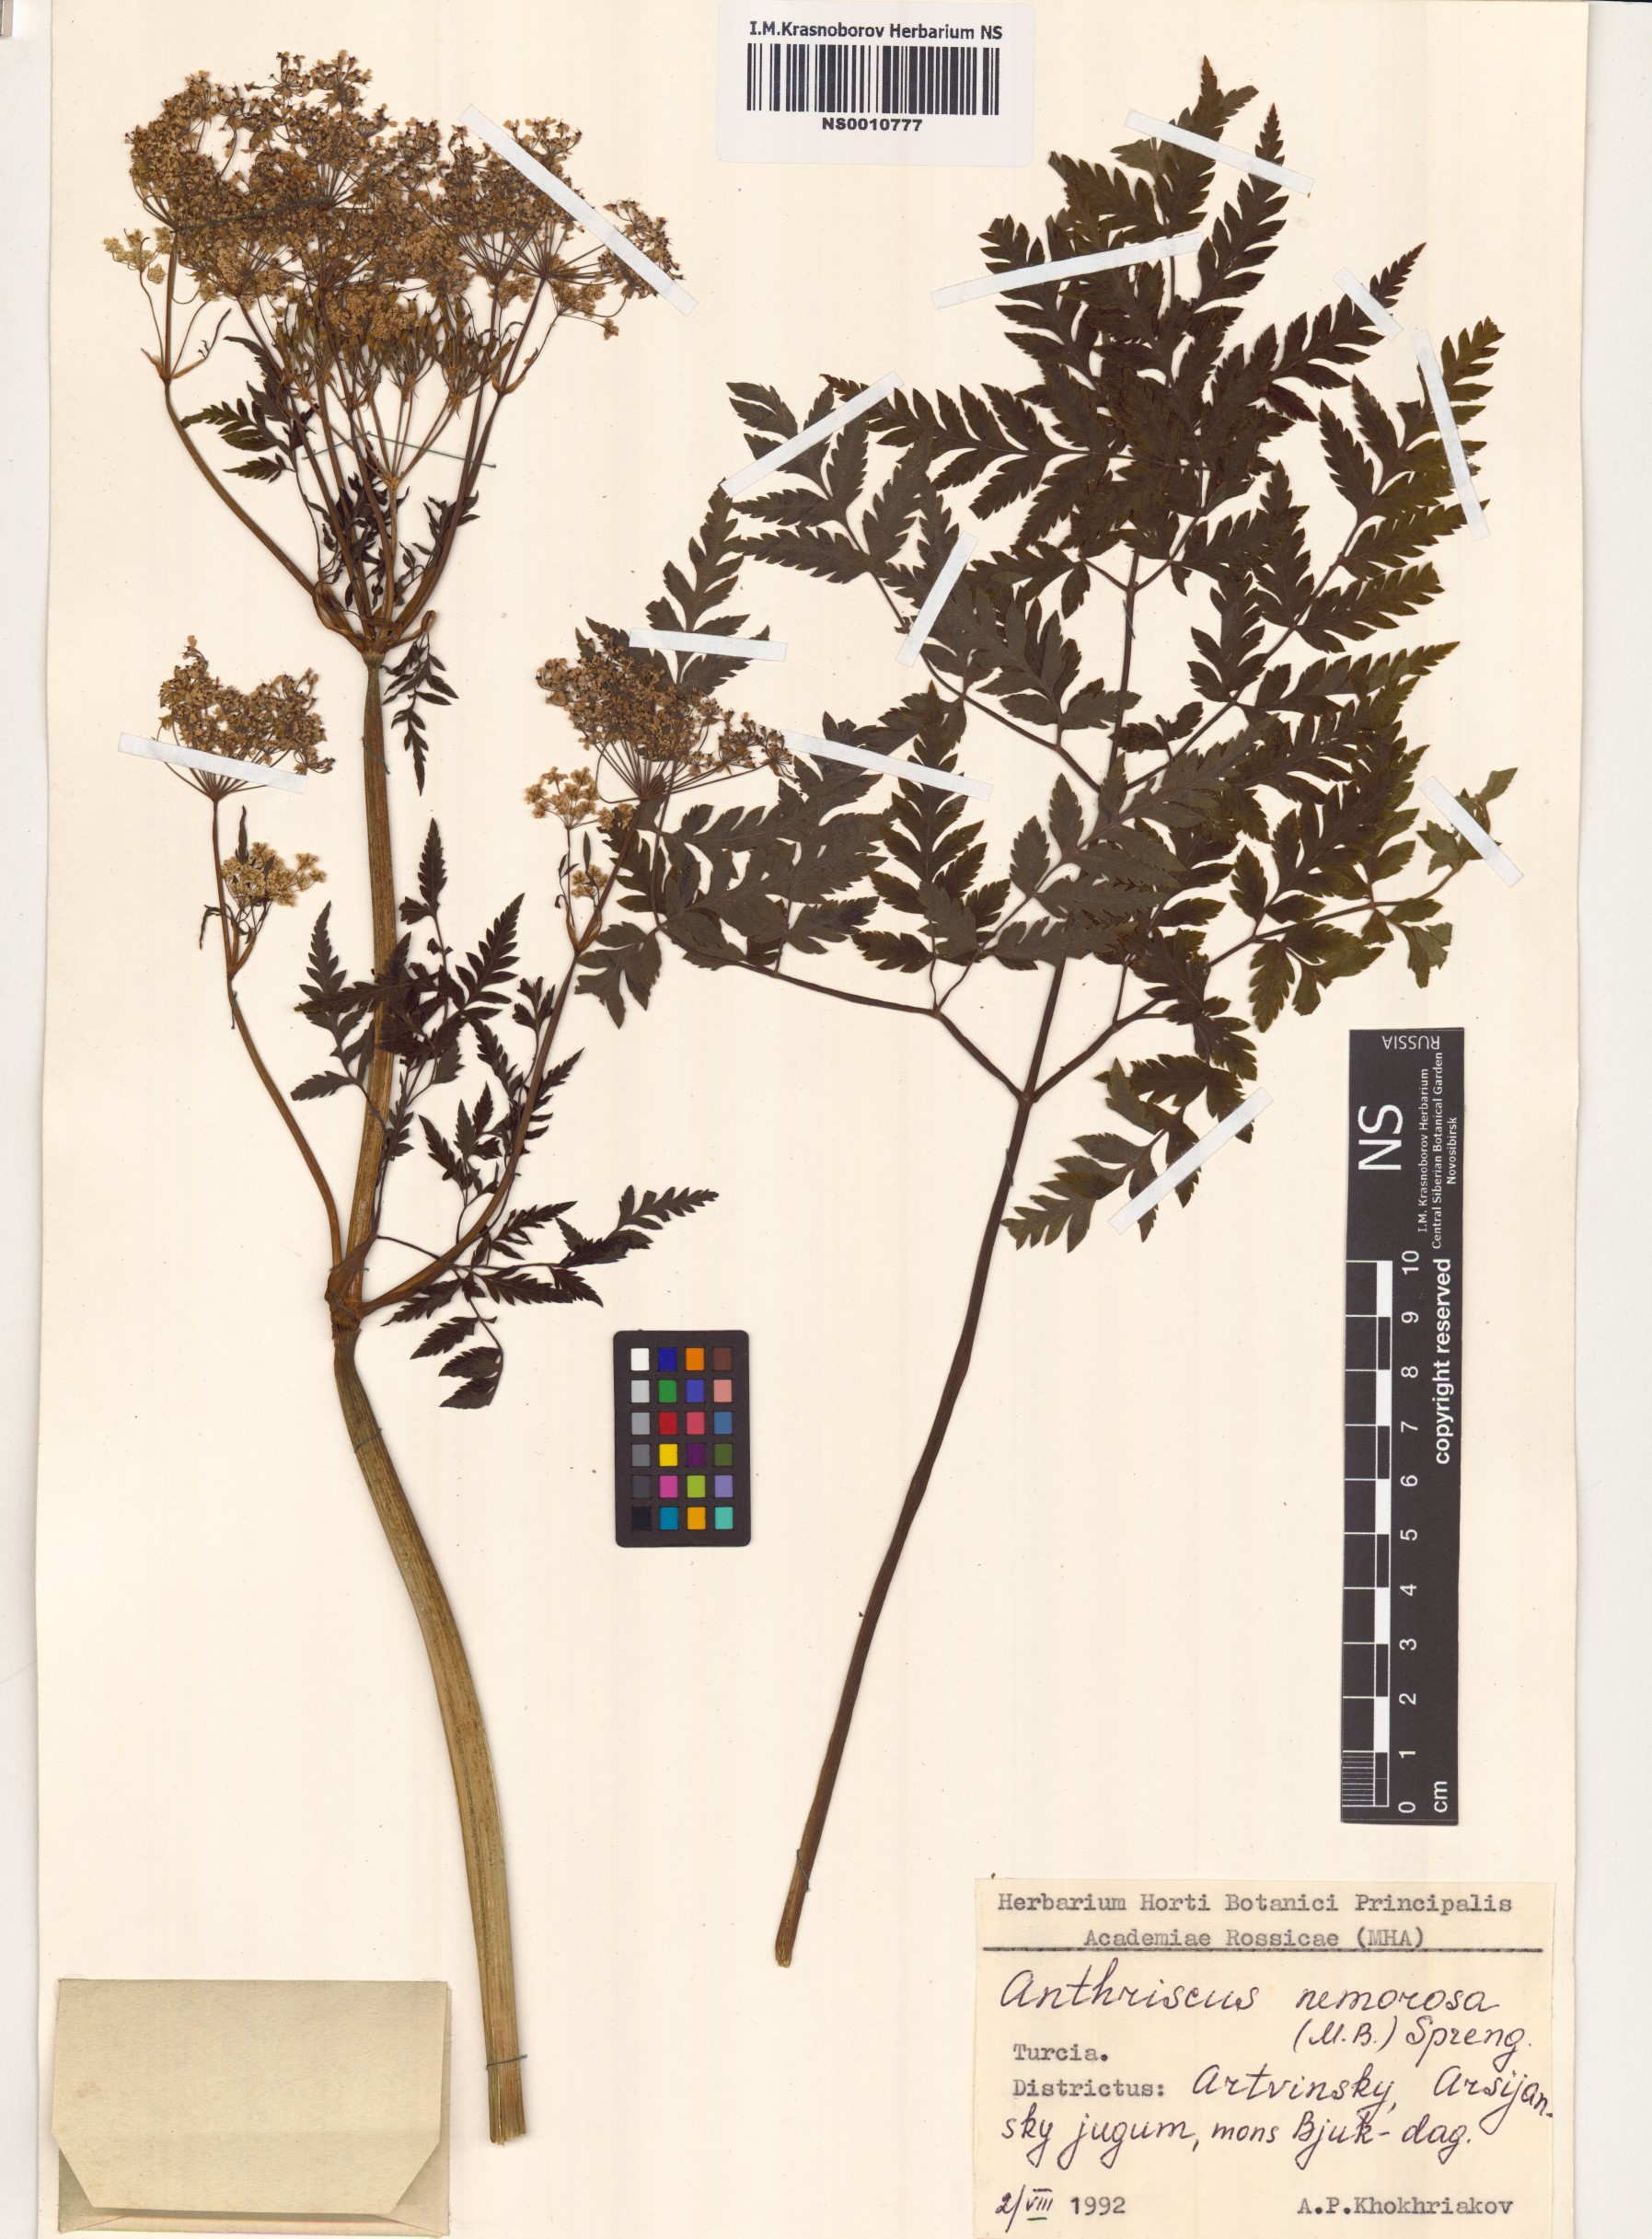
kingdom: Plantae
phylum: Tracheophyta
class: Magnoliopsida
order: Apiales
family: Apiaceae
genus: Anthriscus
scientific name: Anthriscus sylvestris
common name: Cow parsley
